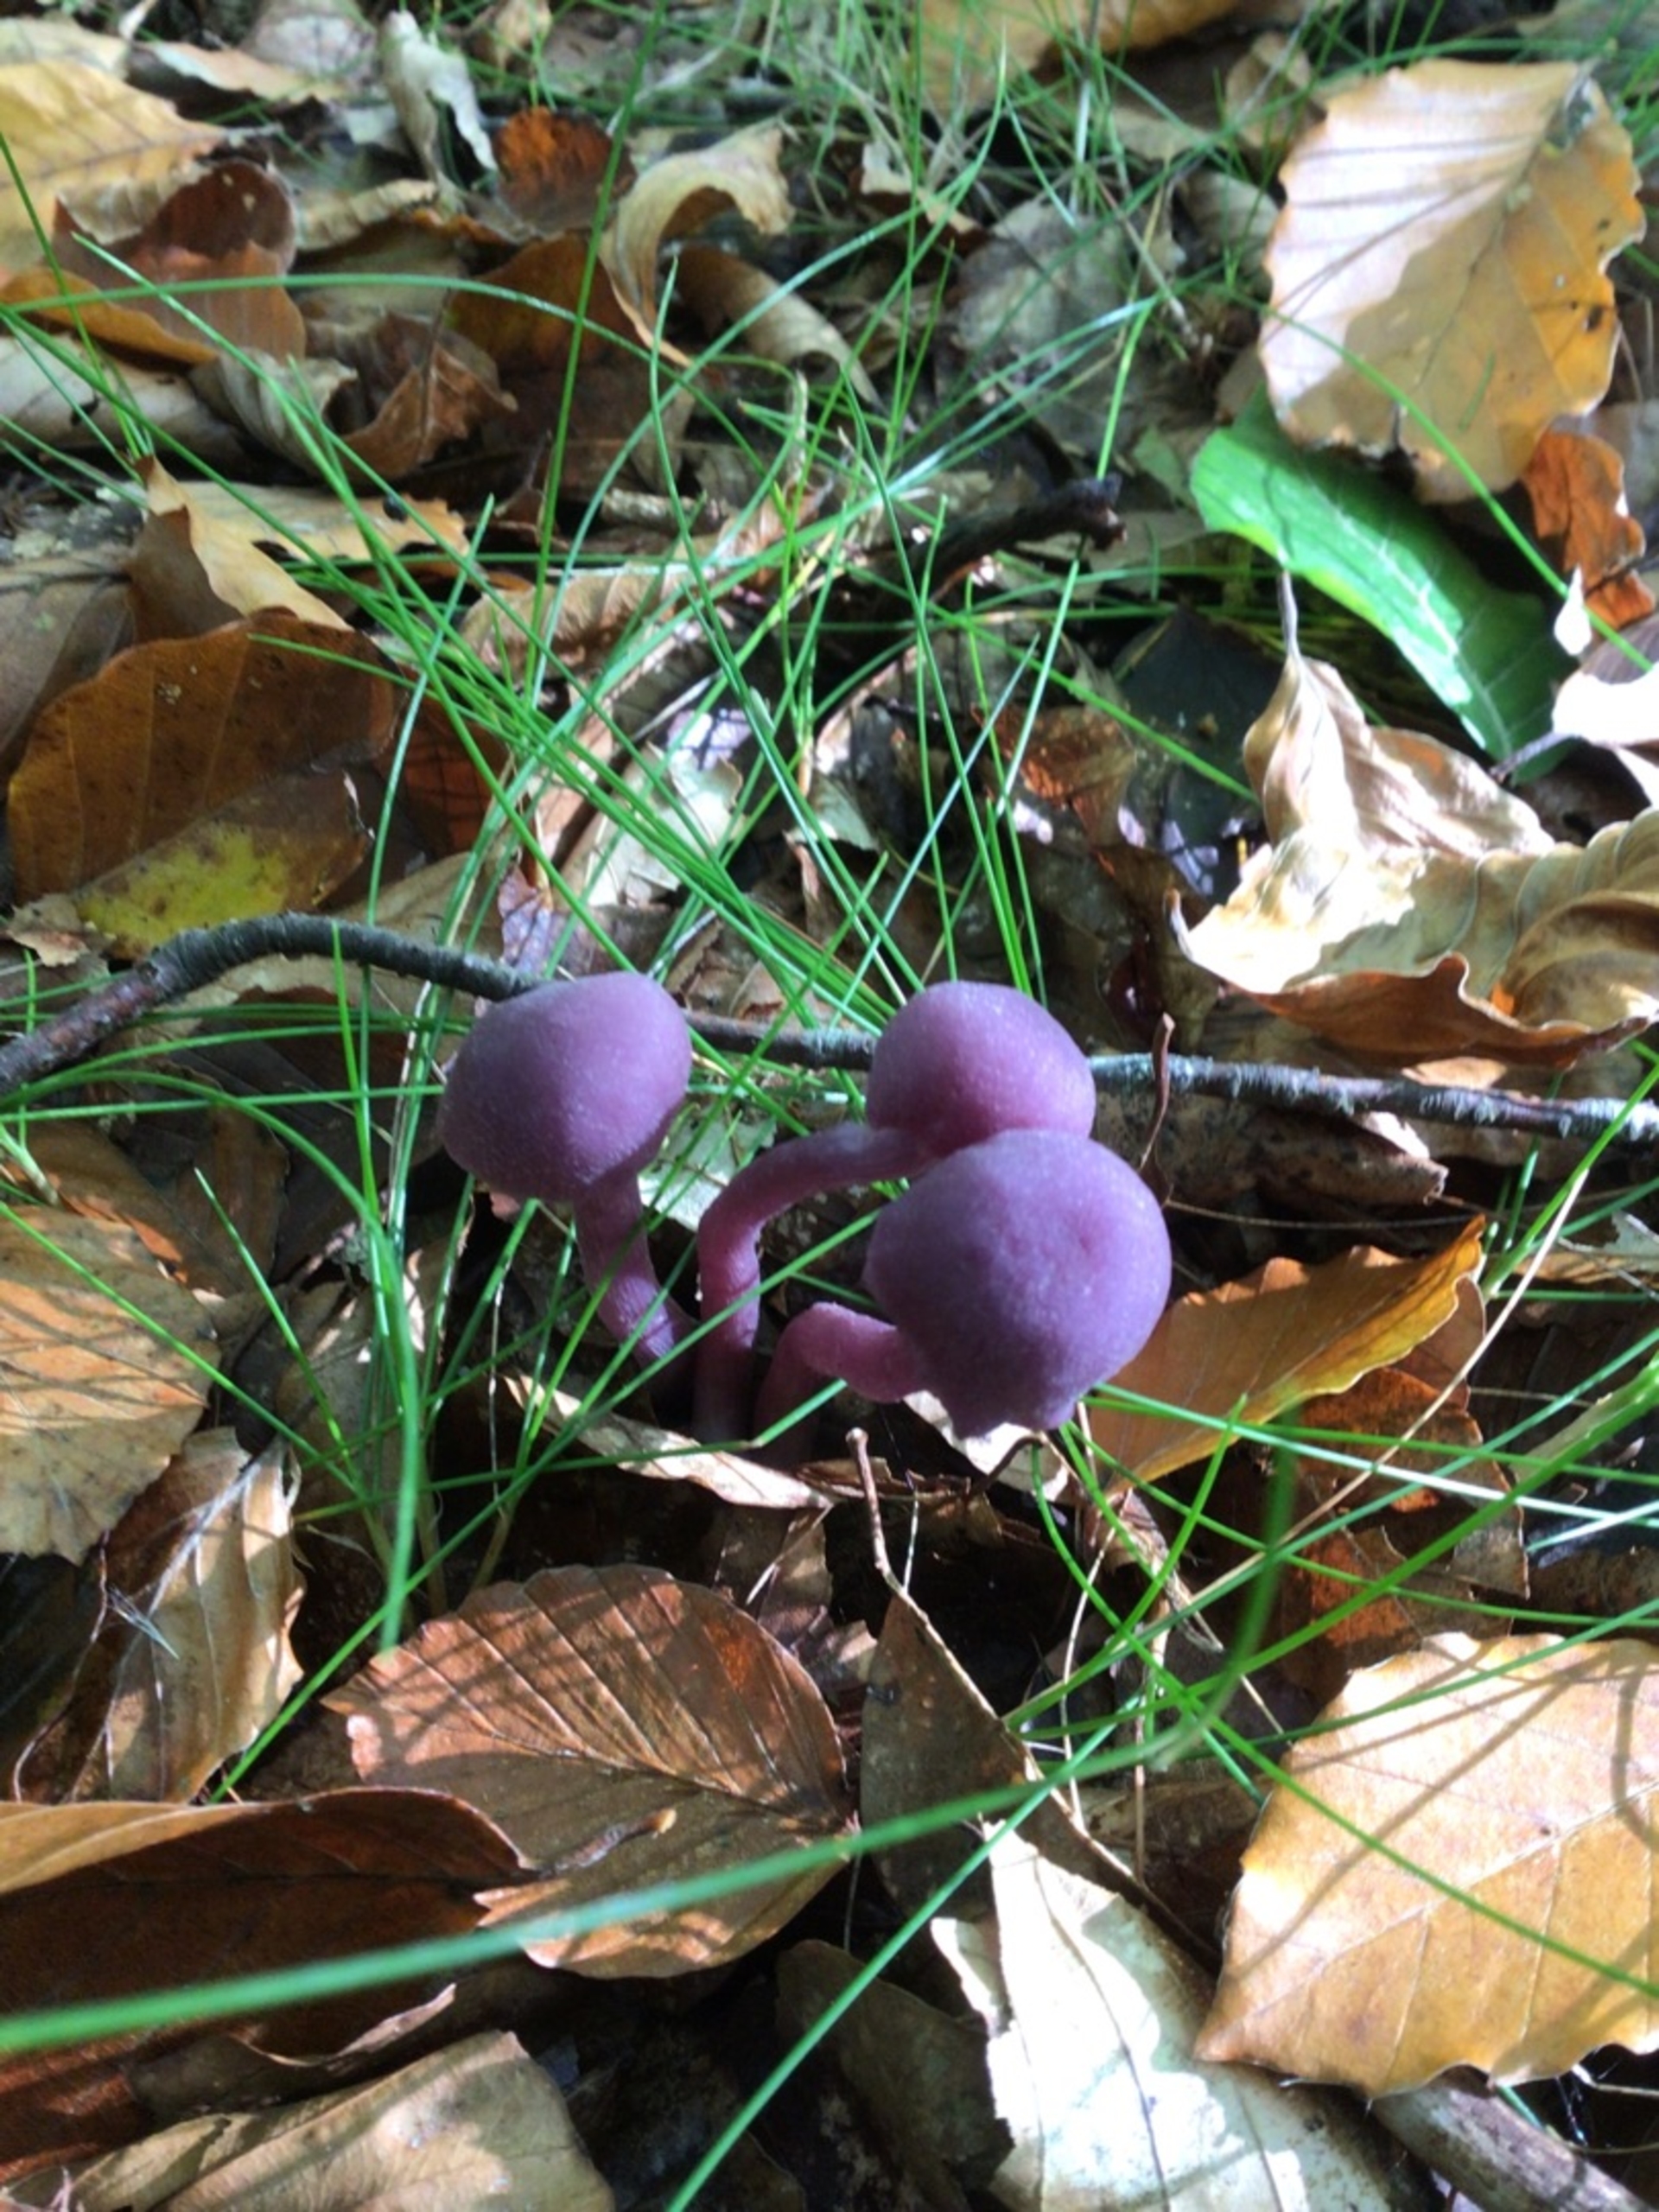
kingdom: Fungi
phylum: Basidiomycota
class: Agaricomycetes
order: Agaricales
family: Hydnangiaceae
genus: Laccaria
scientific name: Laccaria amethystina
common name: Violet ametysthat
